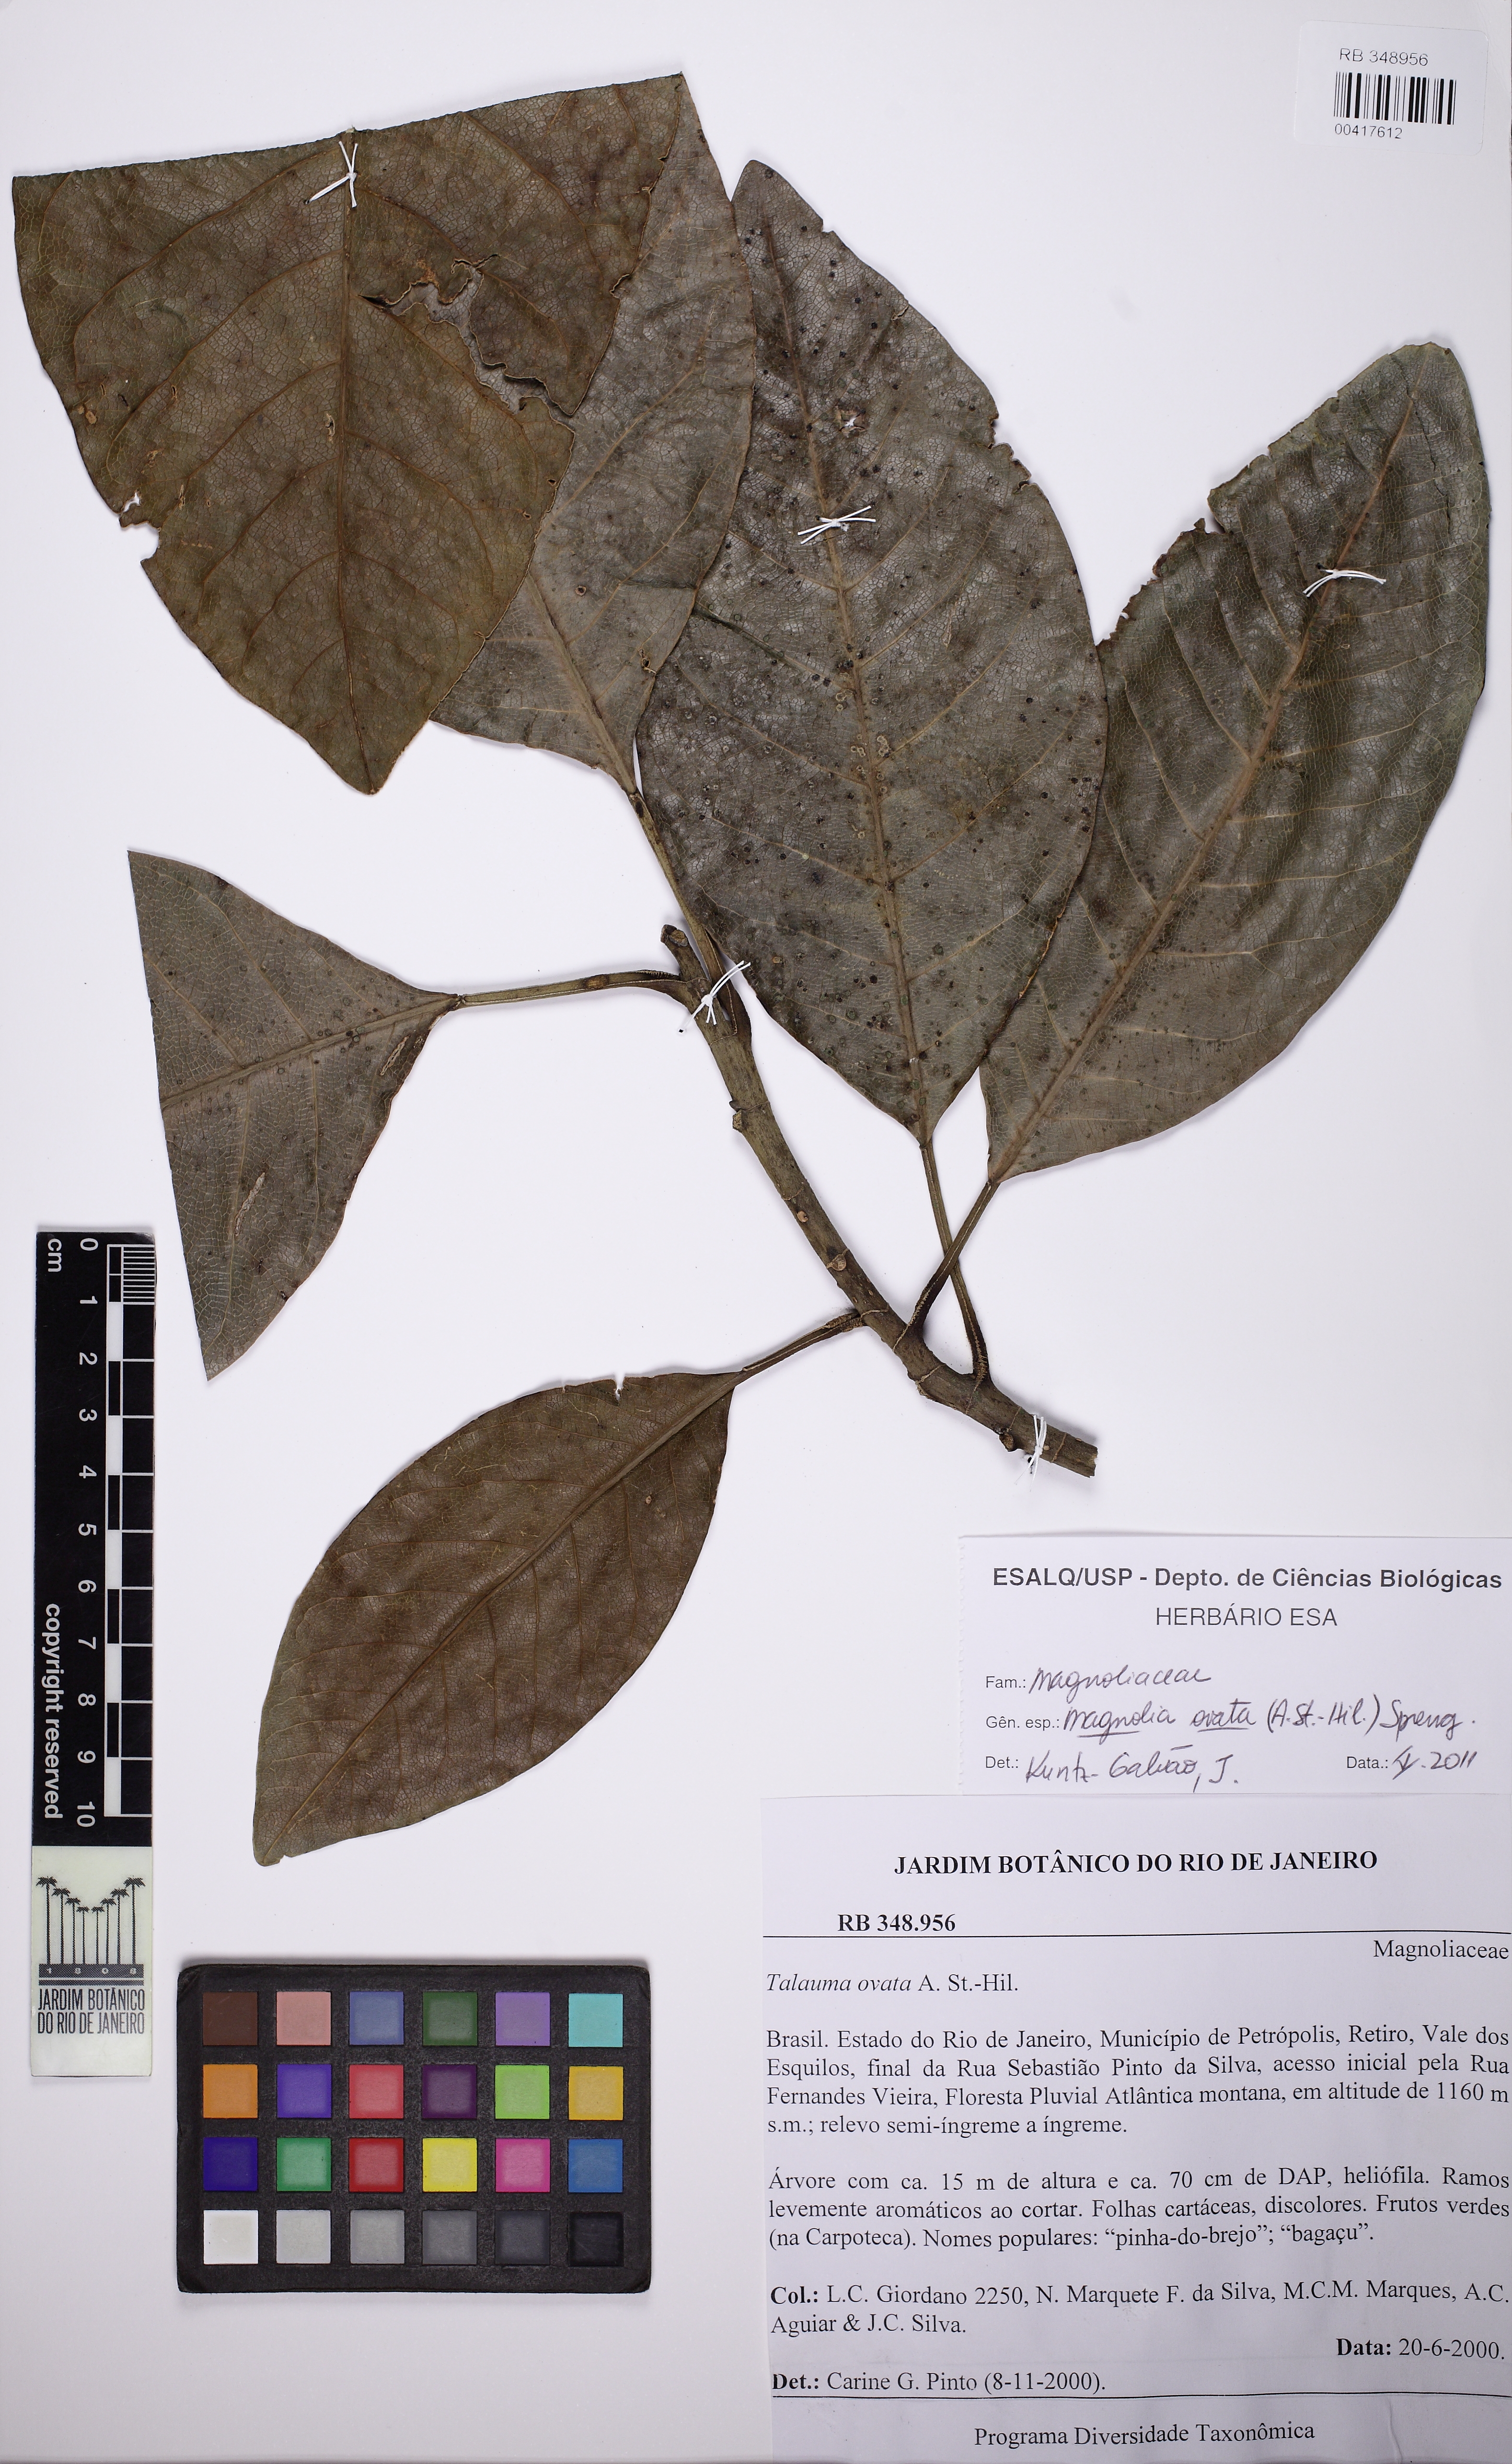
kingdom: Plantae
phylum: Tracheophyta
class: Magnoliopsida
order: Magnoliales
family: Magnoliaceae
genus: Magnolia
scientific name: Magnolia ovata
